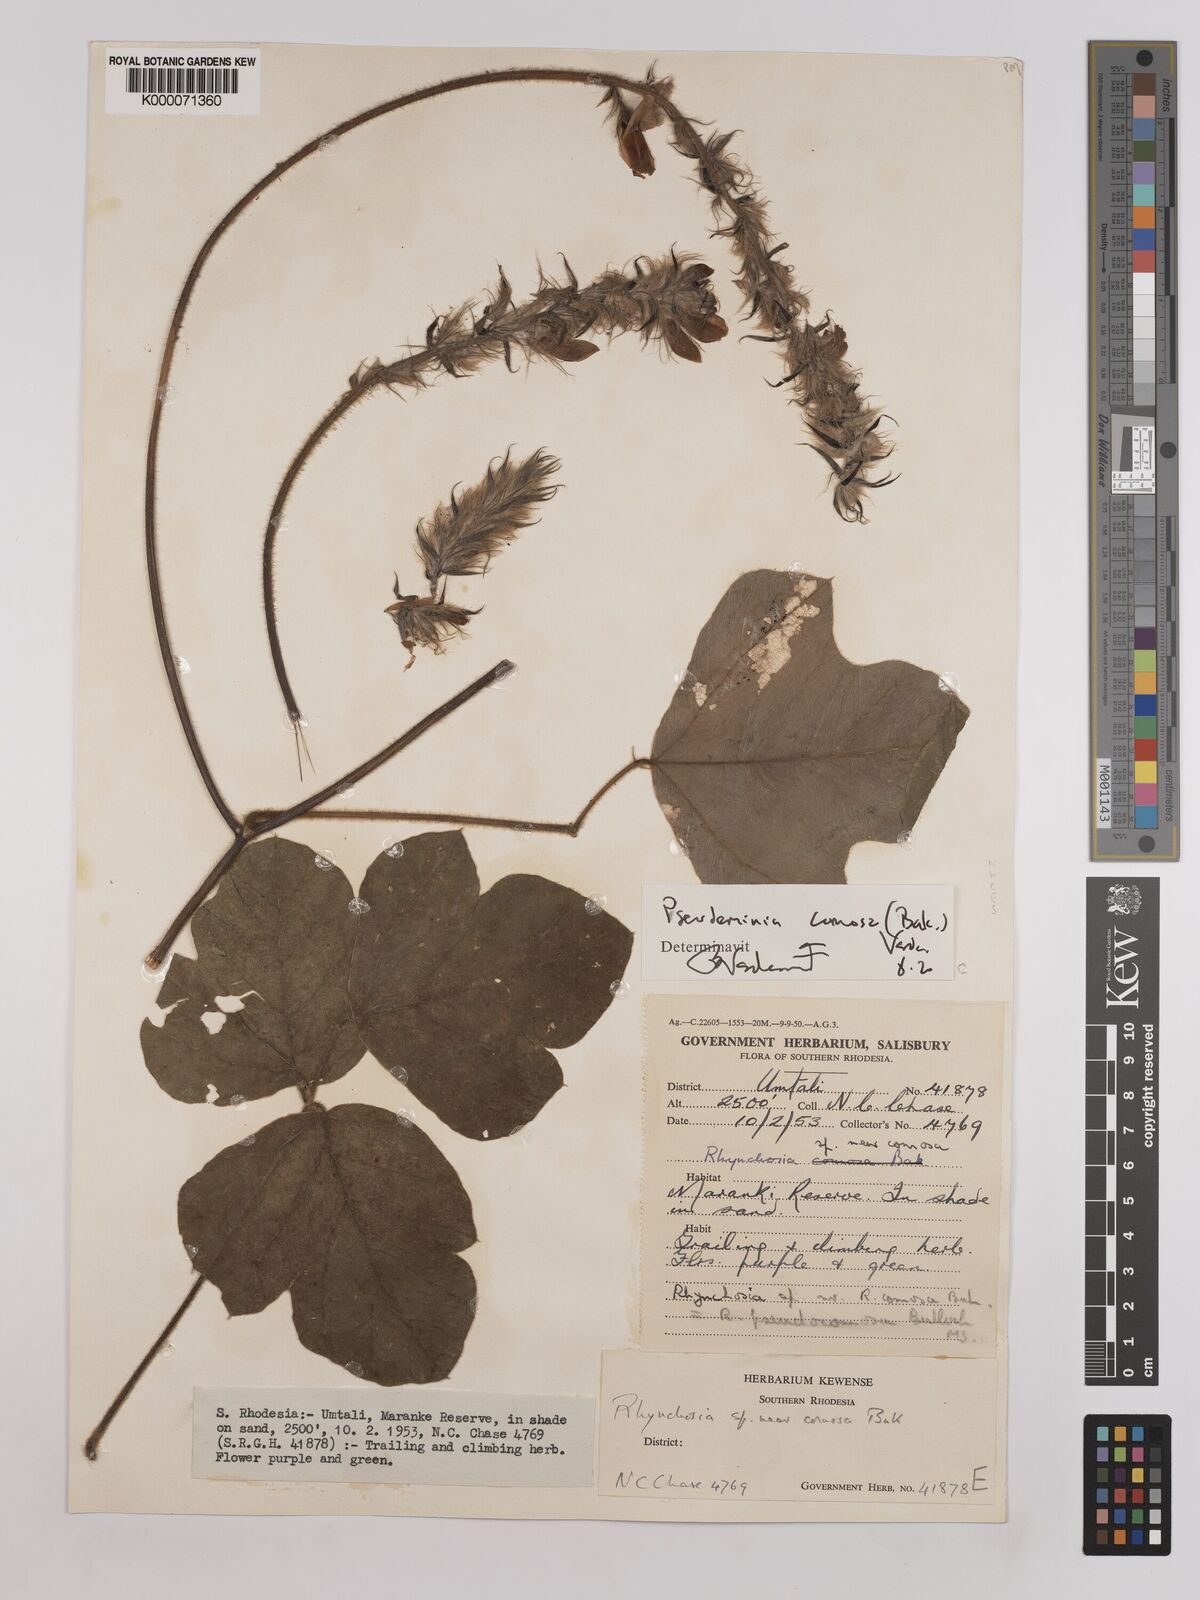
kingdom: Plantae
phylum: Tracheophyta
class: Magnoliopsida
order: Fabales
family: Fabaceae
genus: Pseudeminia
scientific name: Pseudeminia comosa
